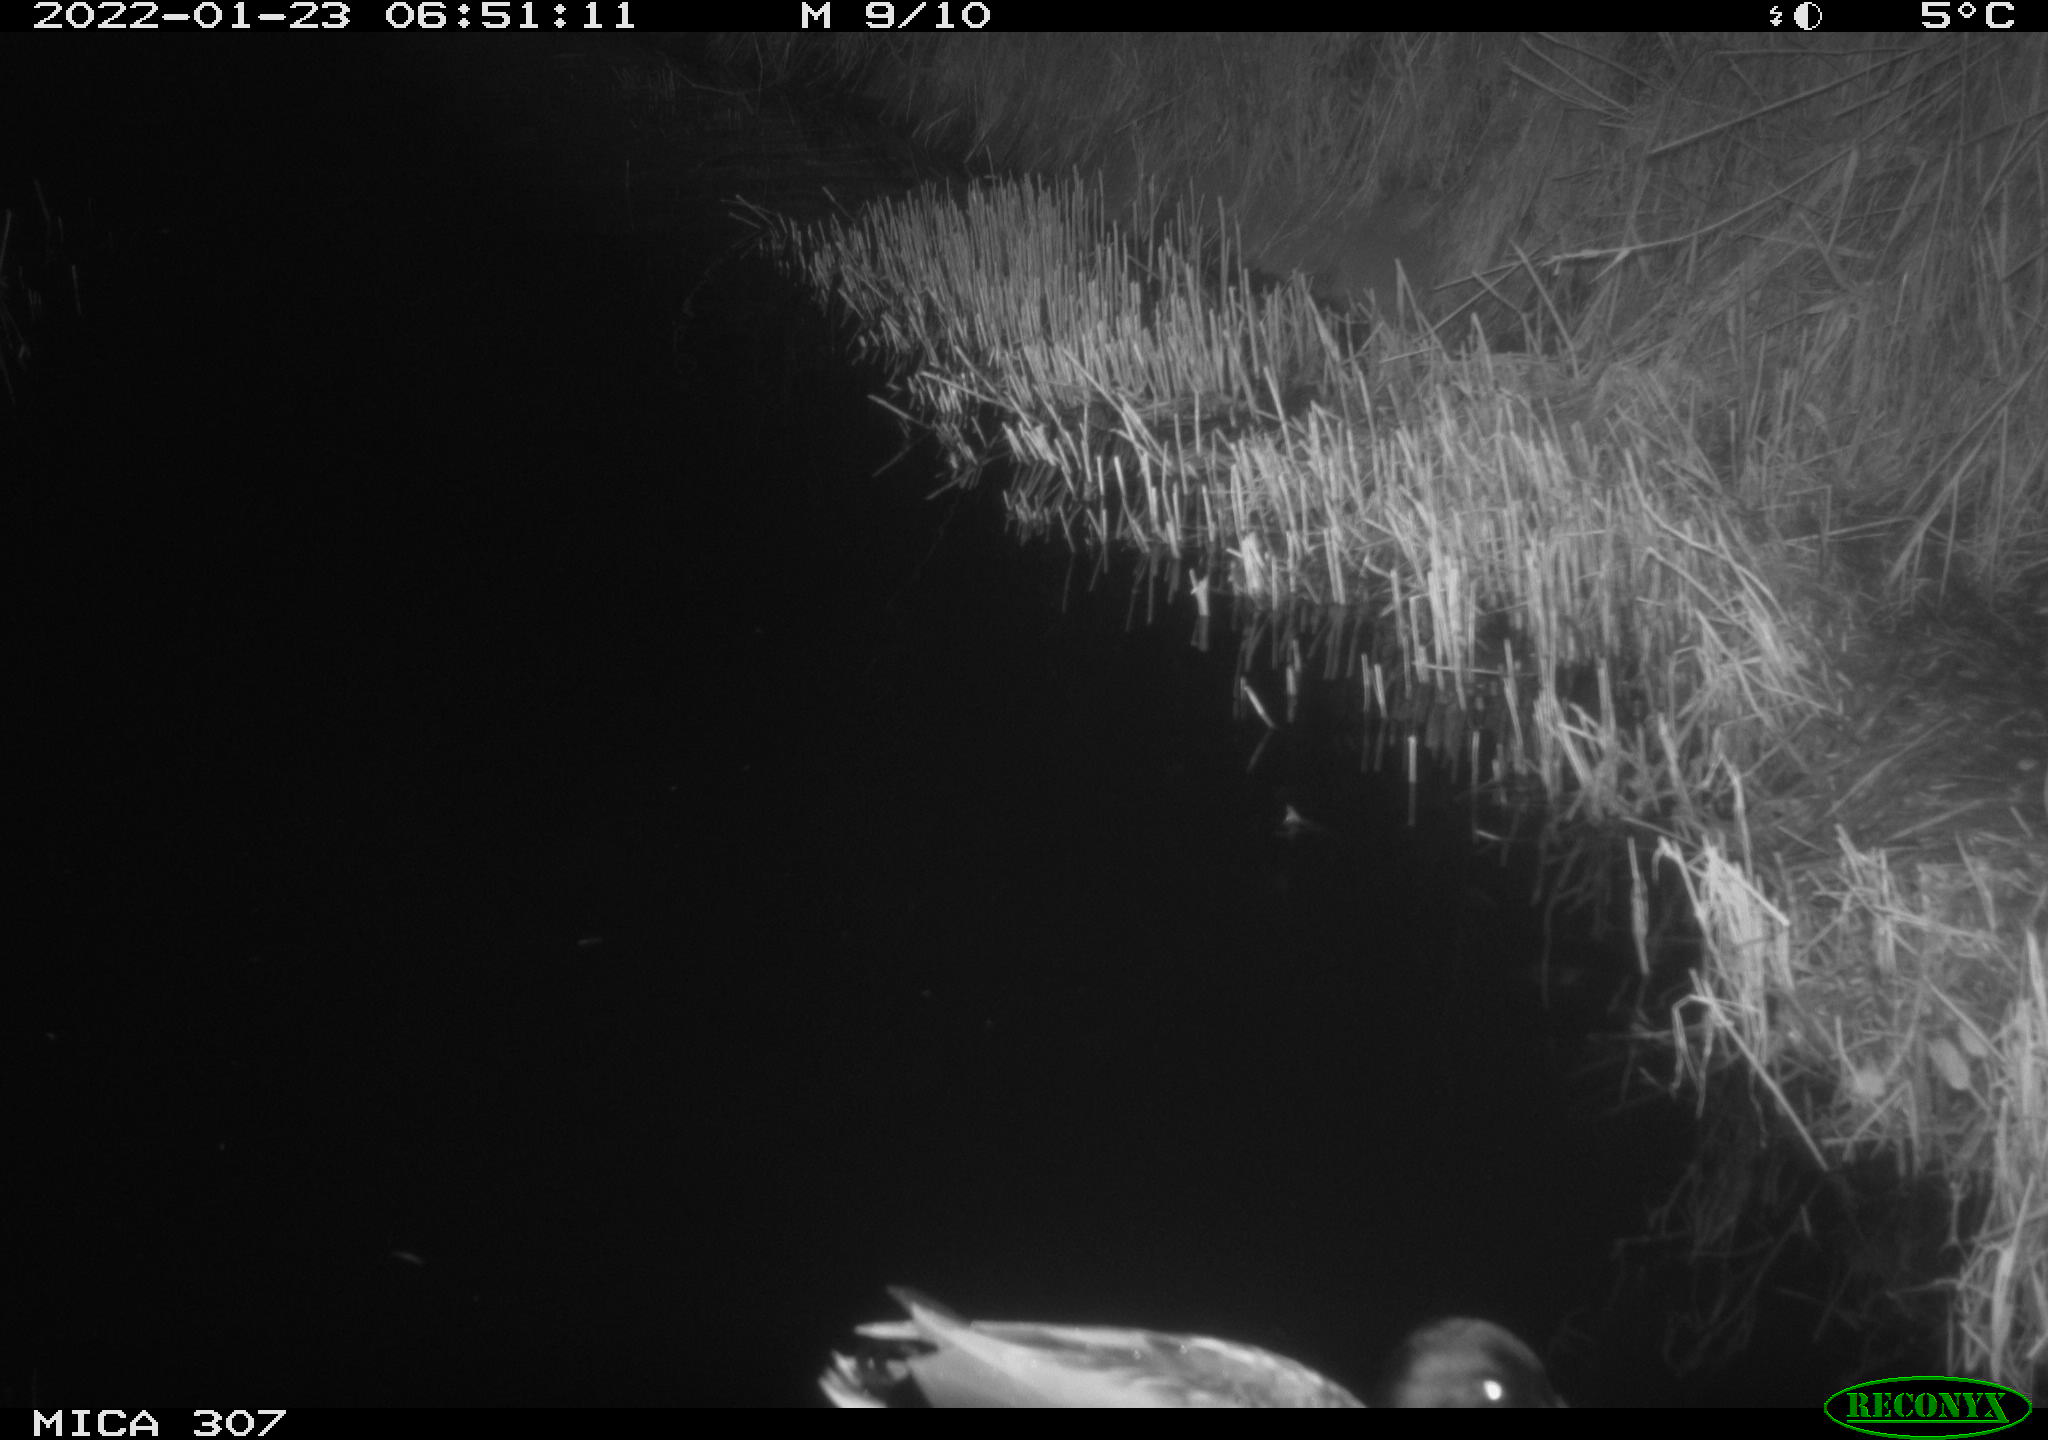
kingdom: Animalia
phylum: Chordata
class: Aves
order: Anseriformes
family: Anatidae
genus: Anas
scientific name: Anas
